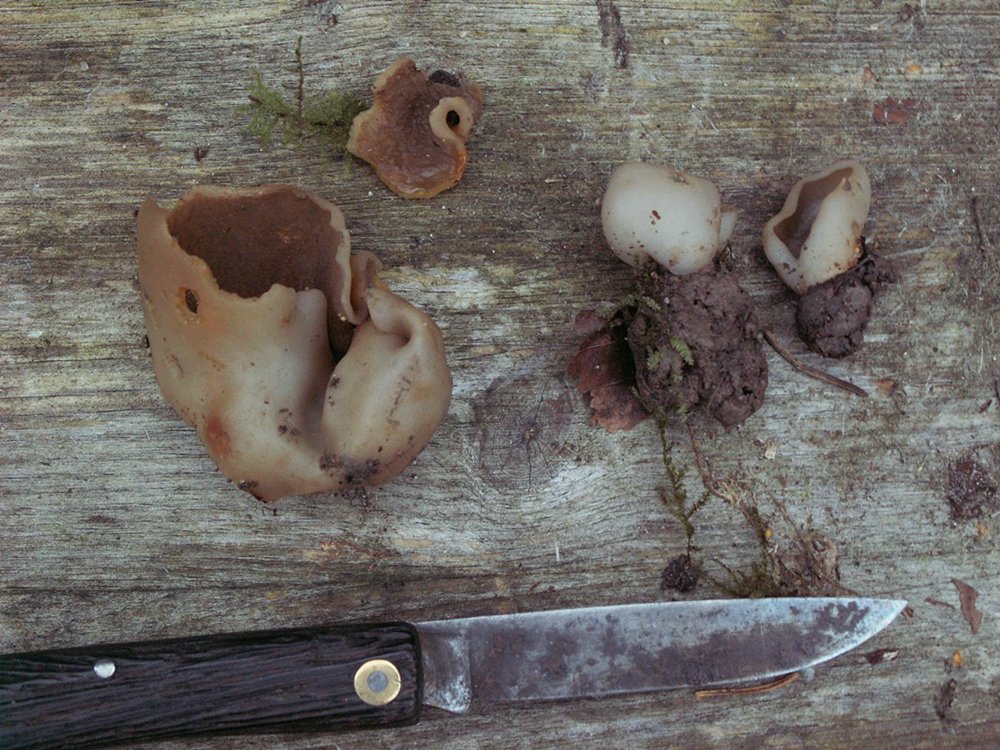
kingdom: Fungi
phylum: Ascomycota
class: Pezizomycetes
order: Pezizales
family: Pezizaceae
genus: Paragalactinia
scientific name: Paragalactinia succosa
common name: gulmælket bægersvamp
